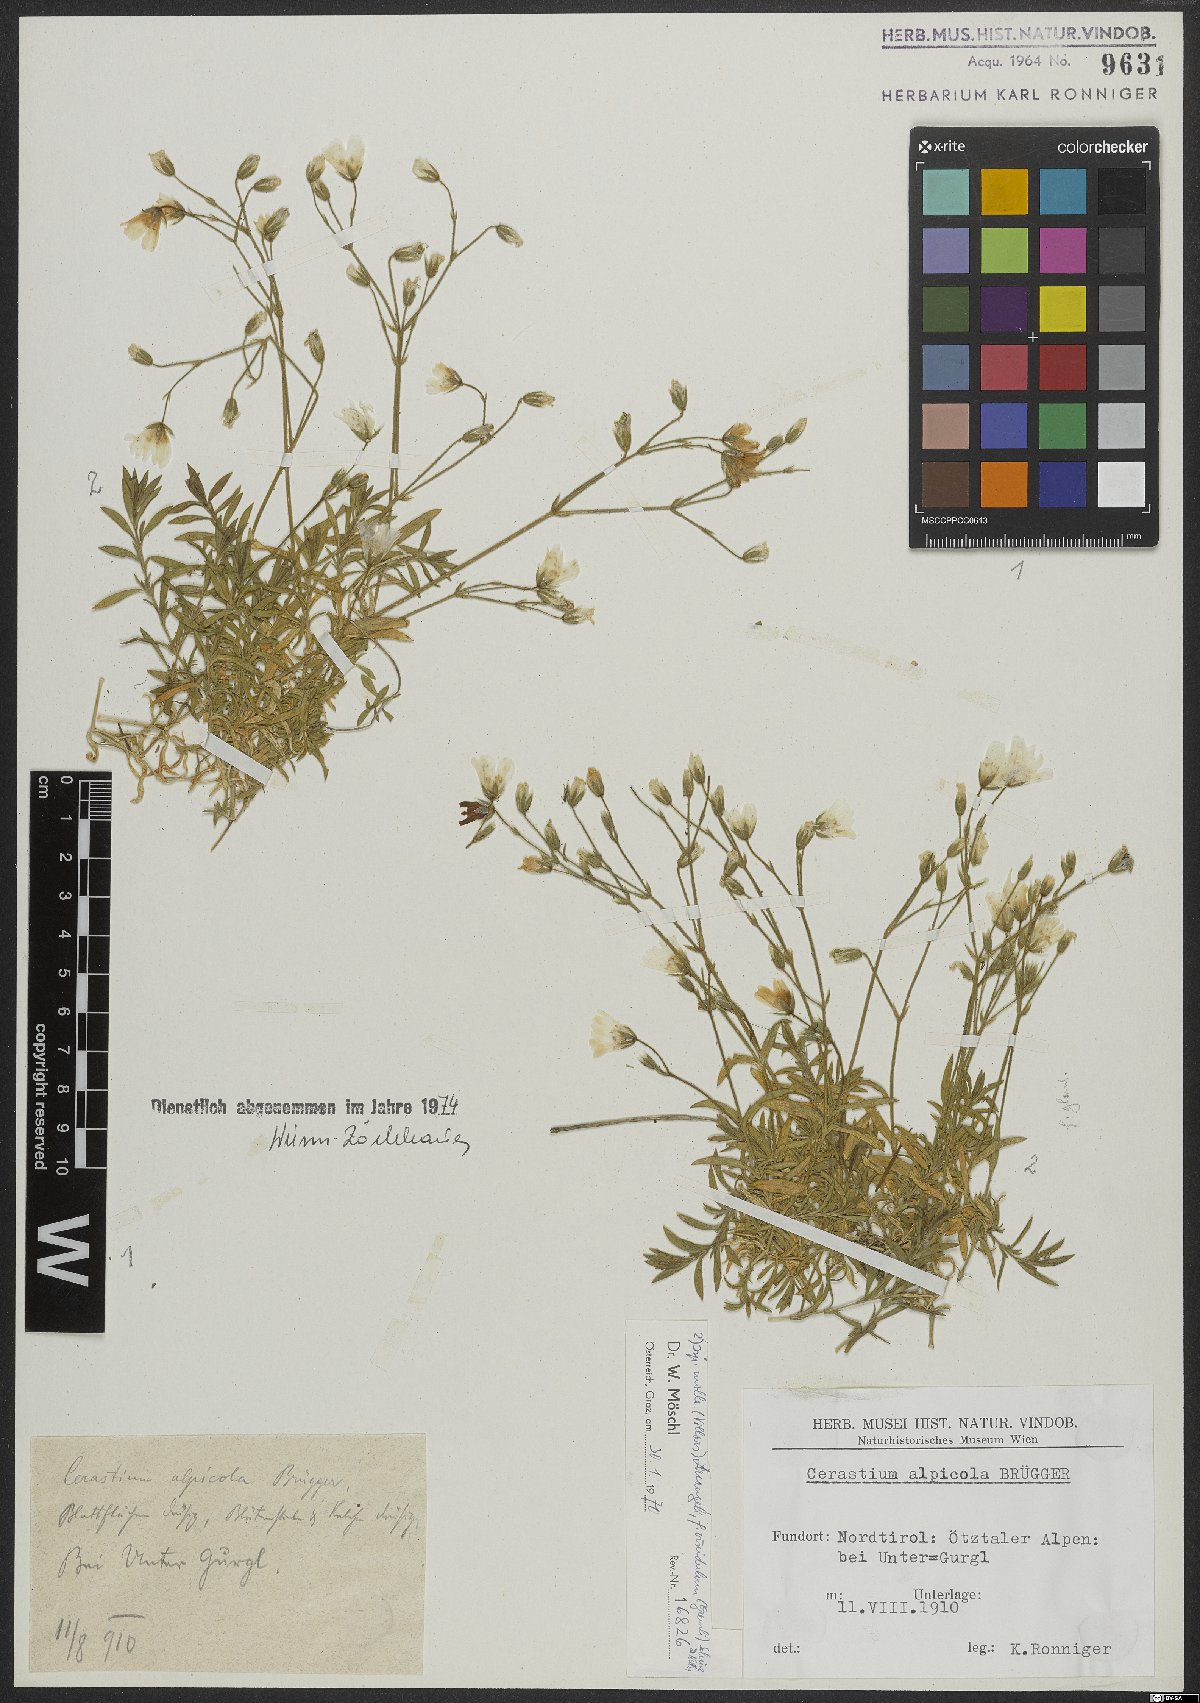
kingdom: Plantae
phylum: Tracheophyta
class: Magnoliopsida
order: Caryophyllales
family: Caryophyllaceae
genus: Cerastium
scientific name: Cerastium arvense
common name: Field mouse-ear
